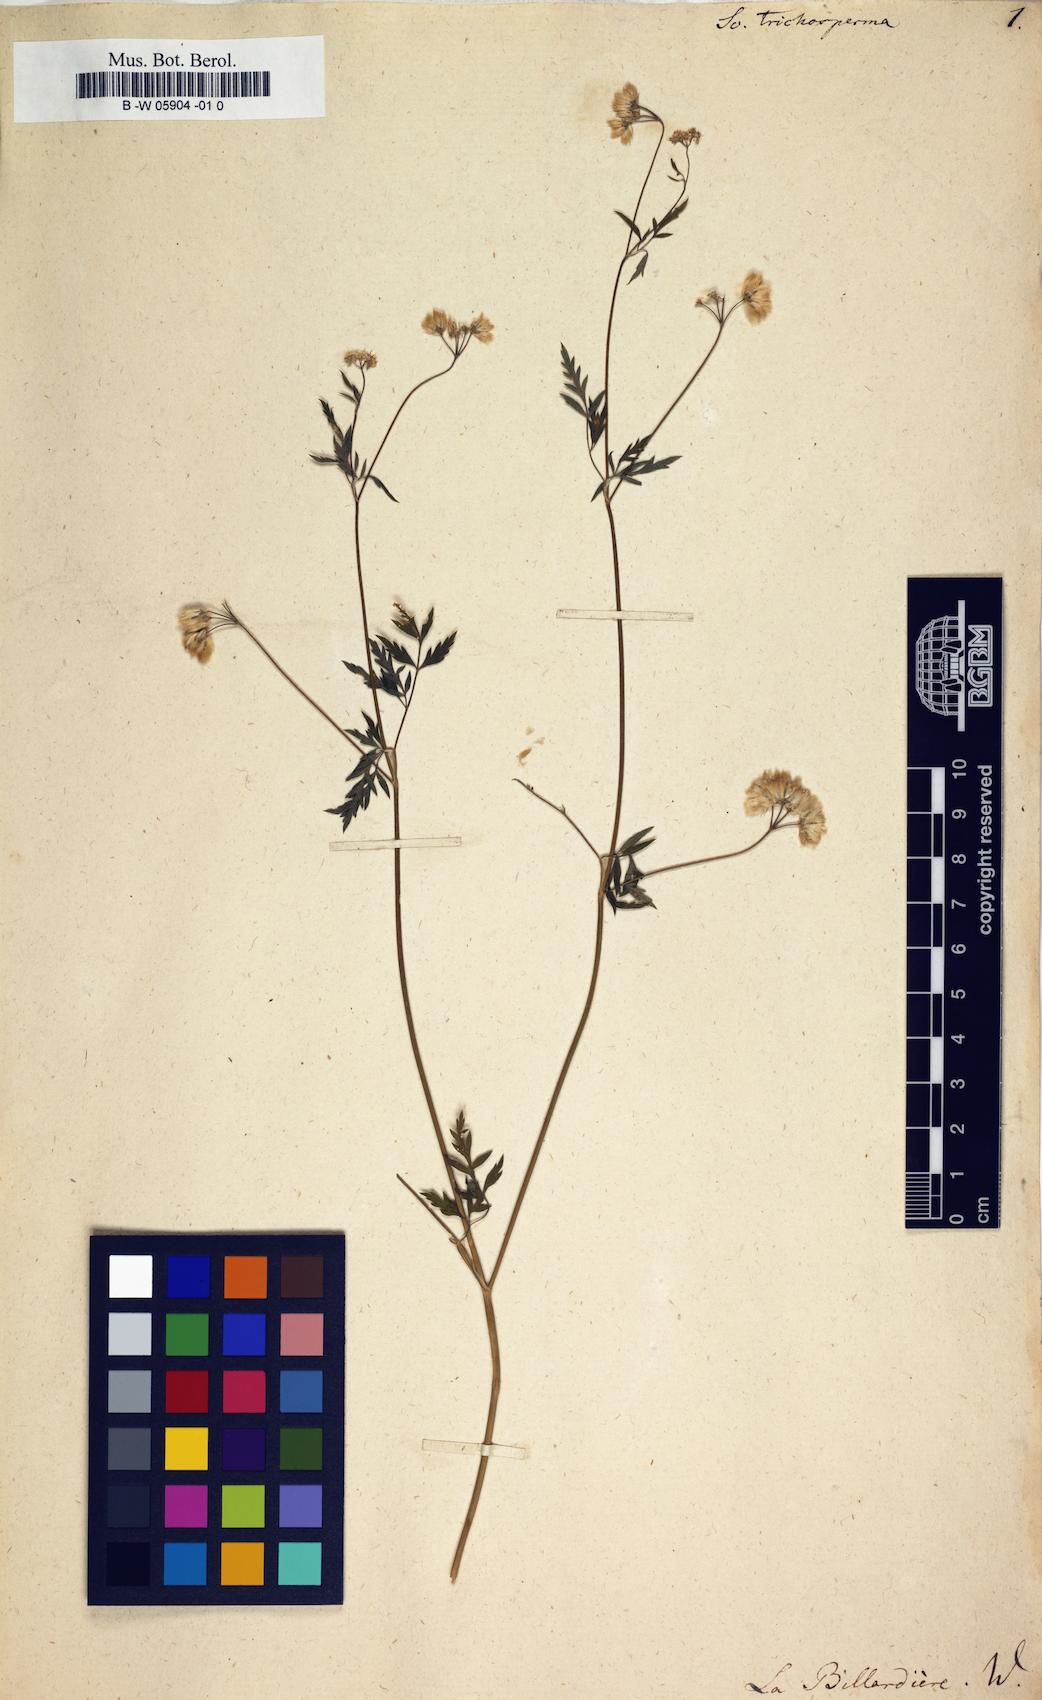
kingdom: Plantae
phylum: Tracheophyta
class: Magnoliopsida
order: Apiales
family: Apiaceae
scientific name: Apiaceae
